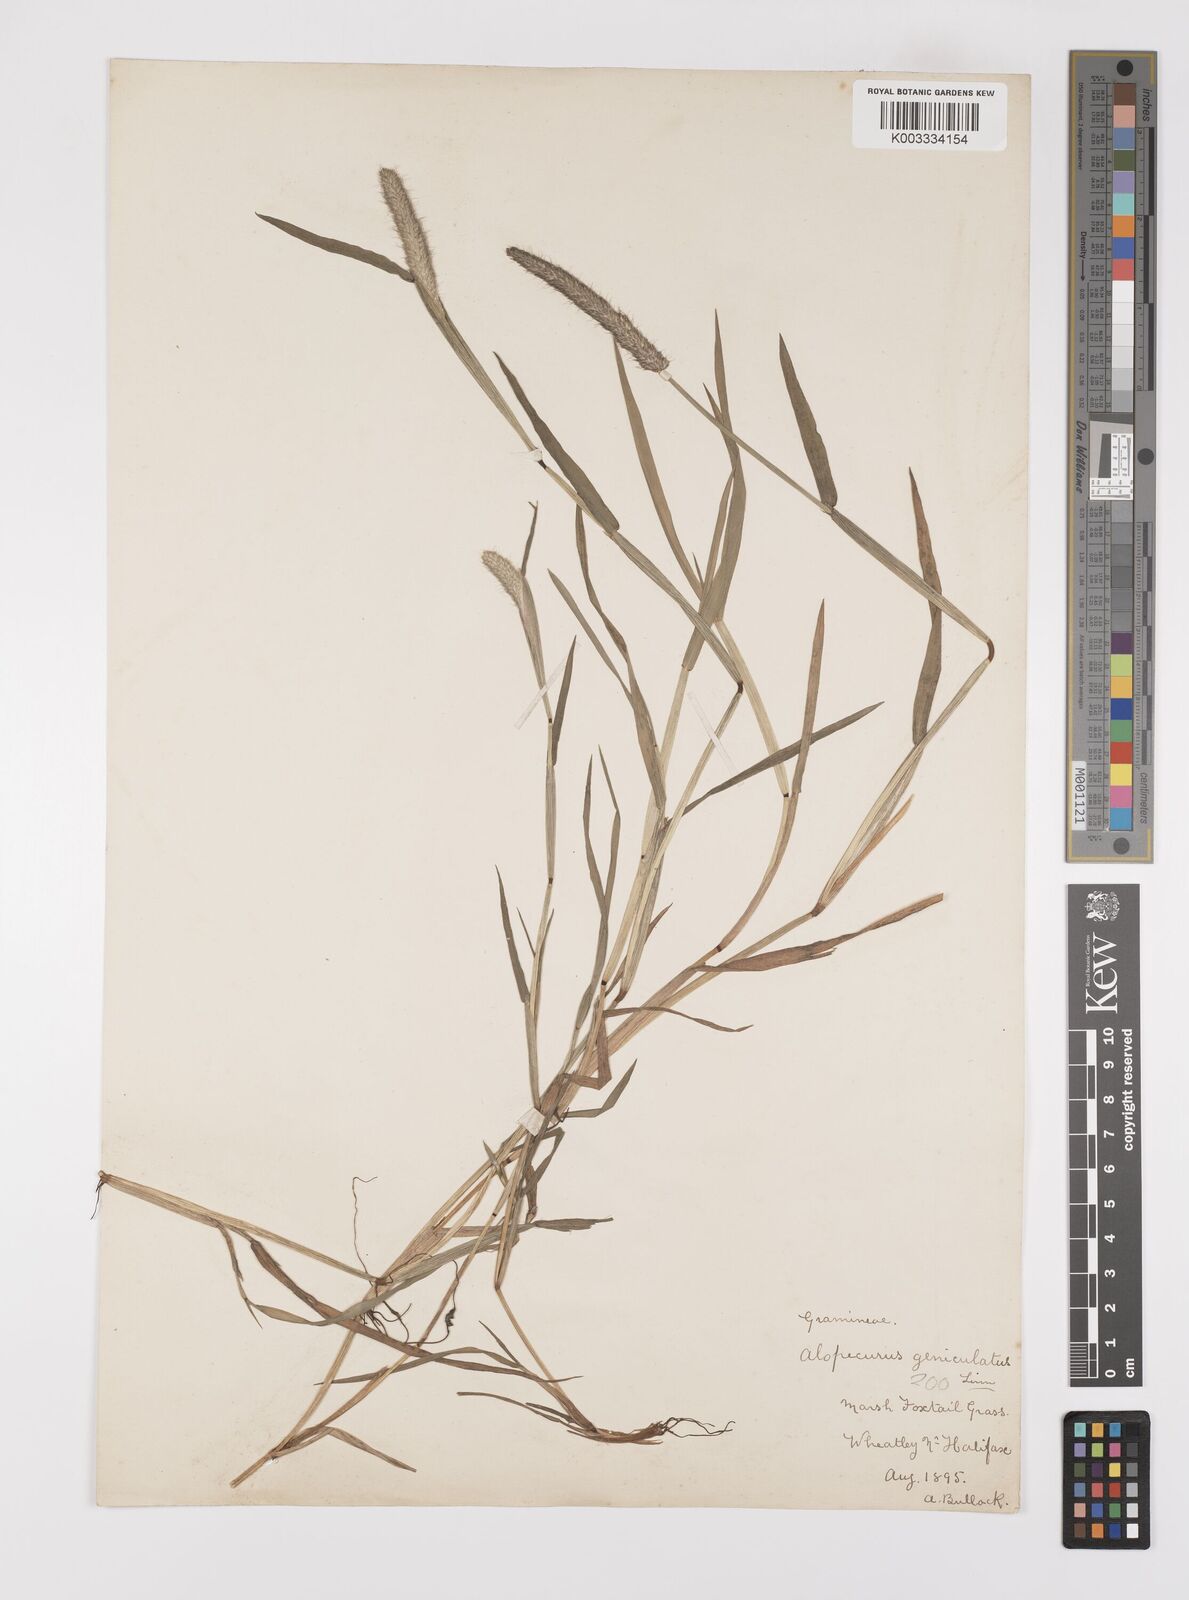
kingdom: Plantae
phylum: Tracheophyta
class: Liliopsida
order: Poales
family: Poaceae
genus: Alopecurus
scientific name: Alopecurus geniculatus
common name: Water foxtail
